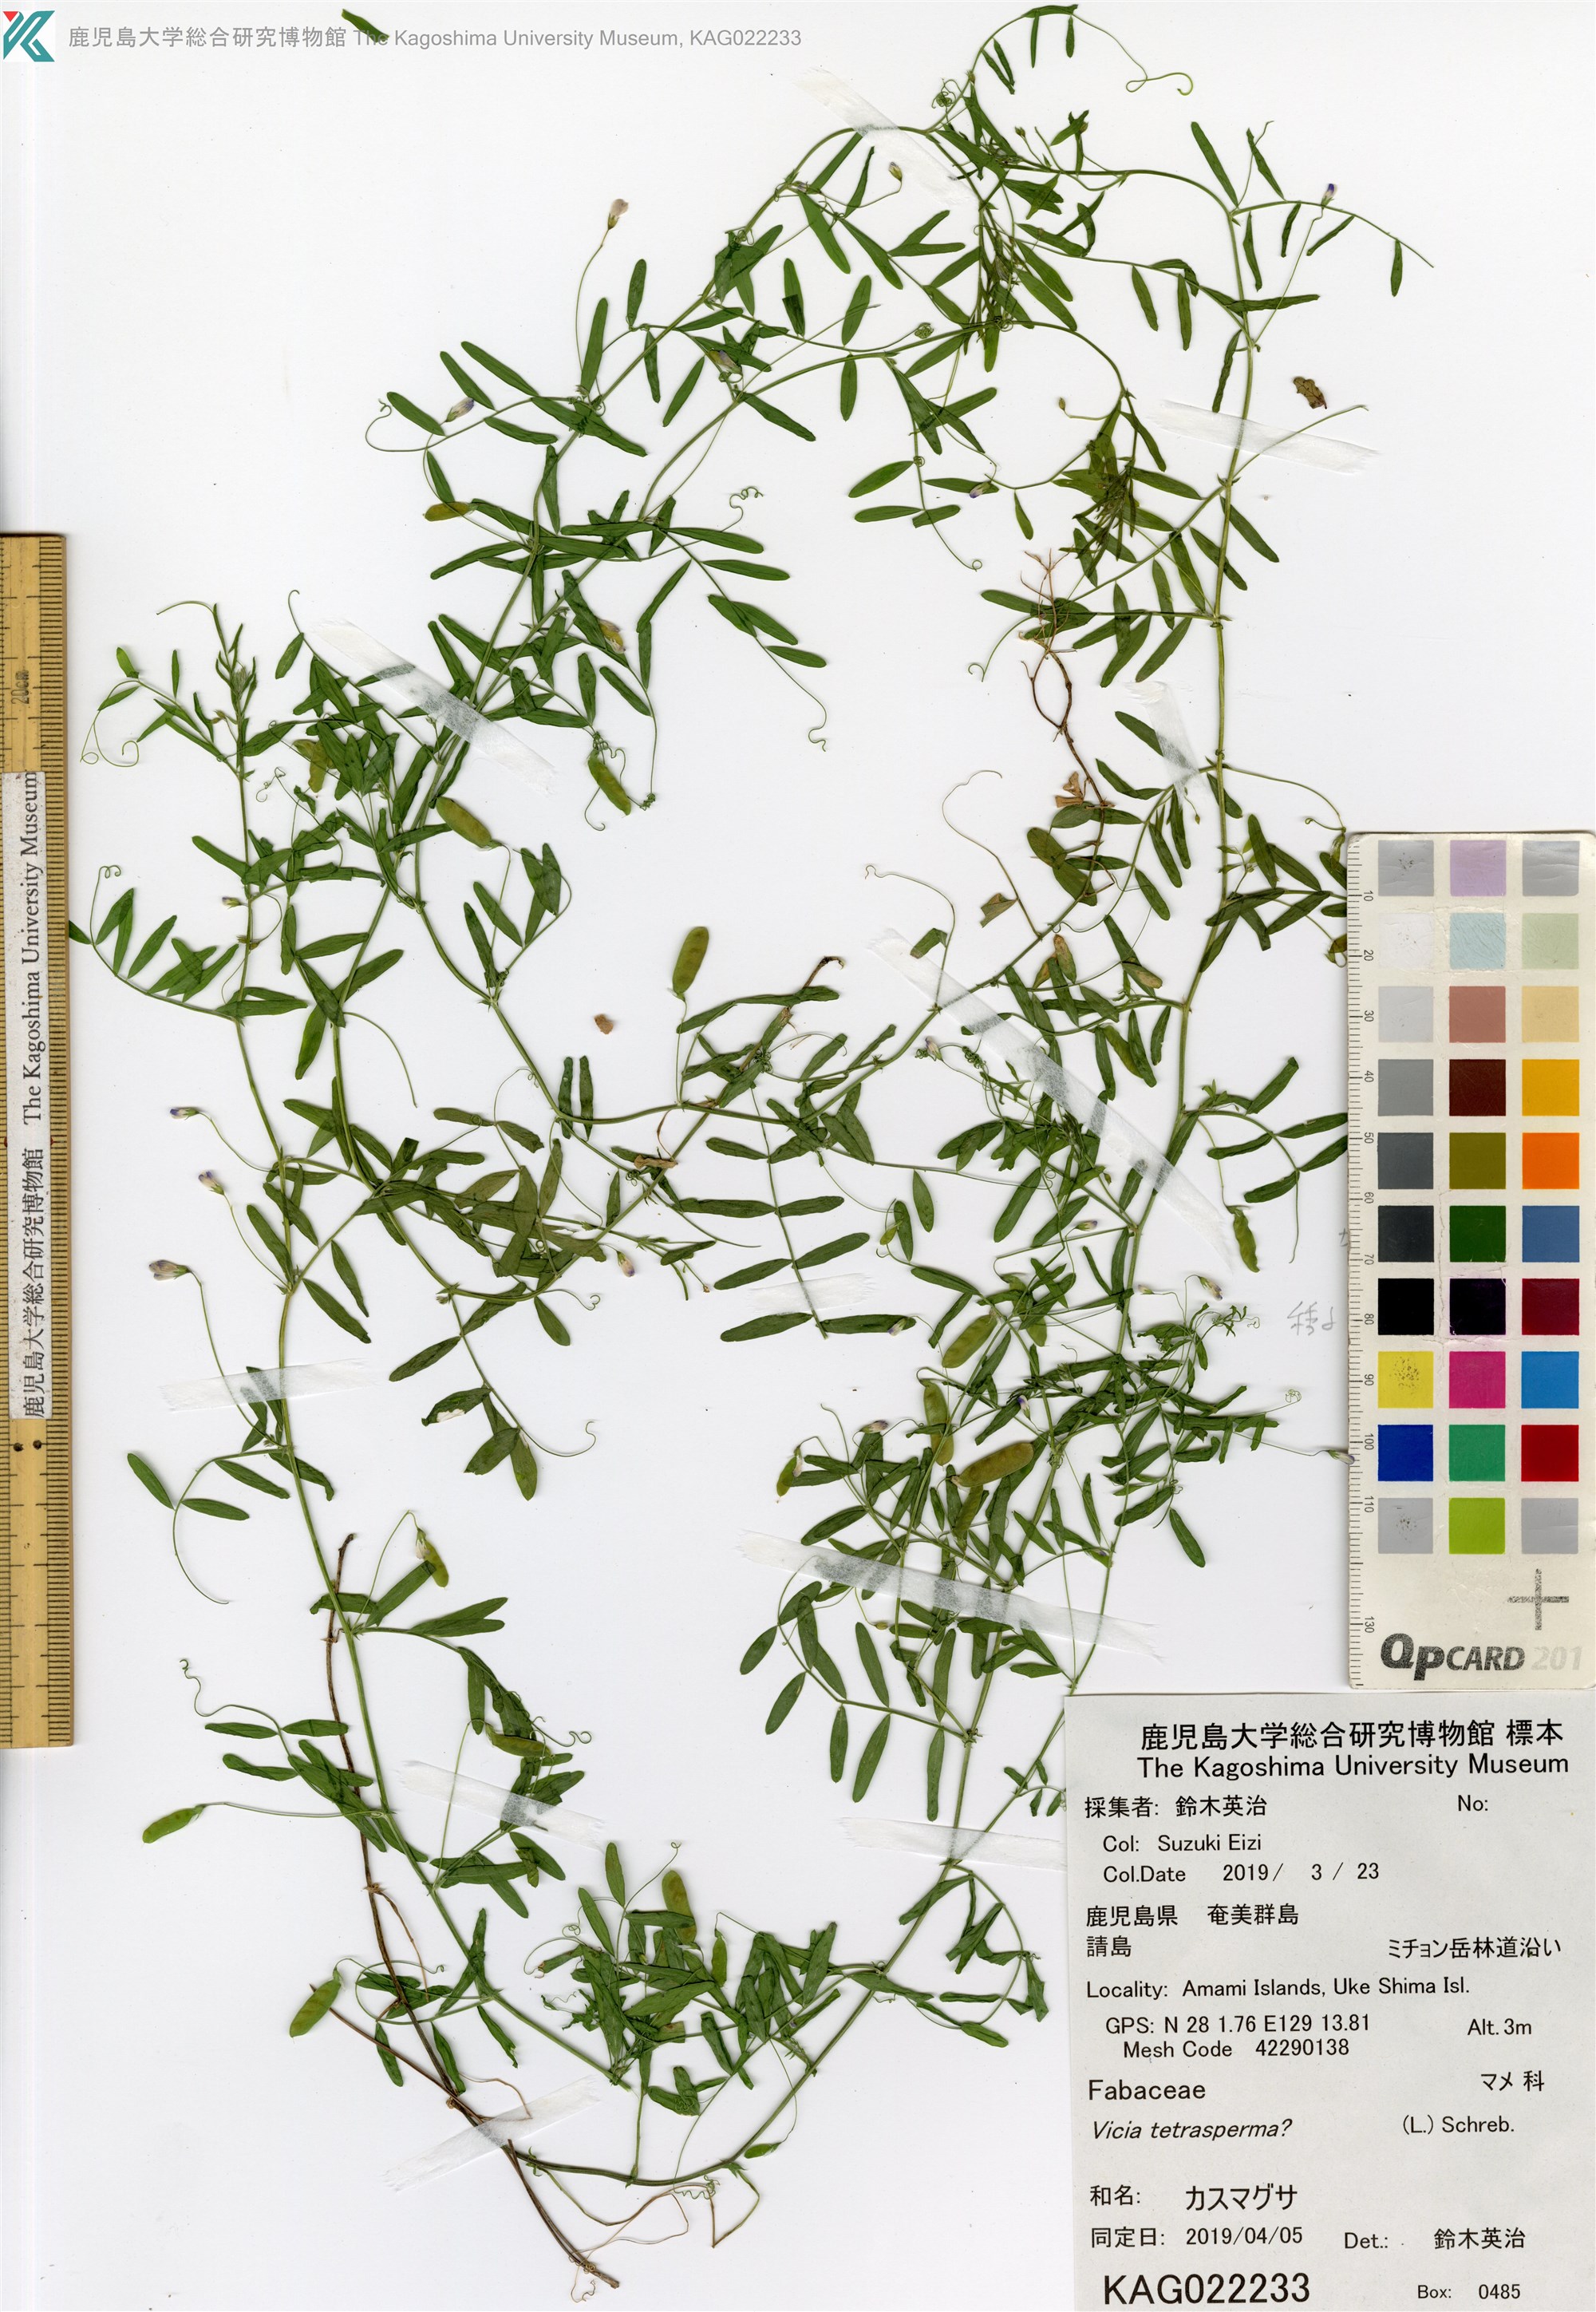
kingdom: Plantae
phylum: Tracheophyta
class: Magnoliopsida
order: Fabales
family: Fabaceae
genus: Vicia
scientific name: Vicia tetrasperma
